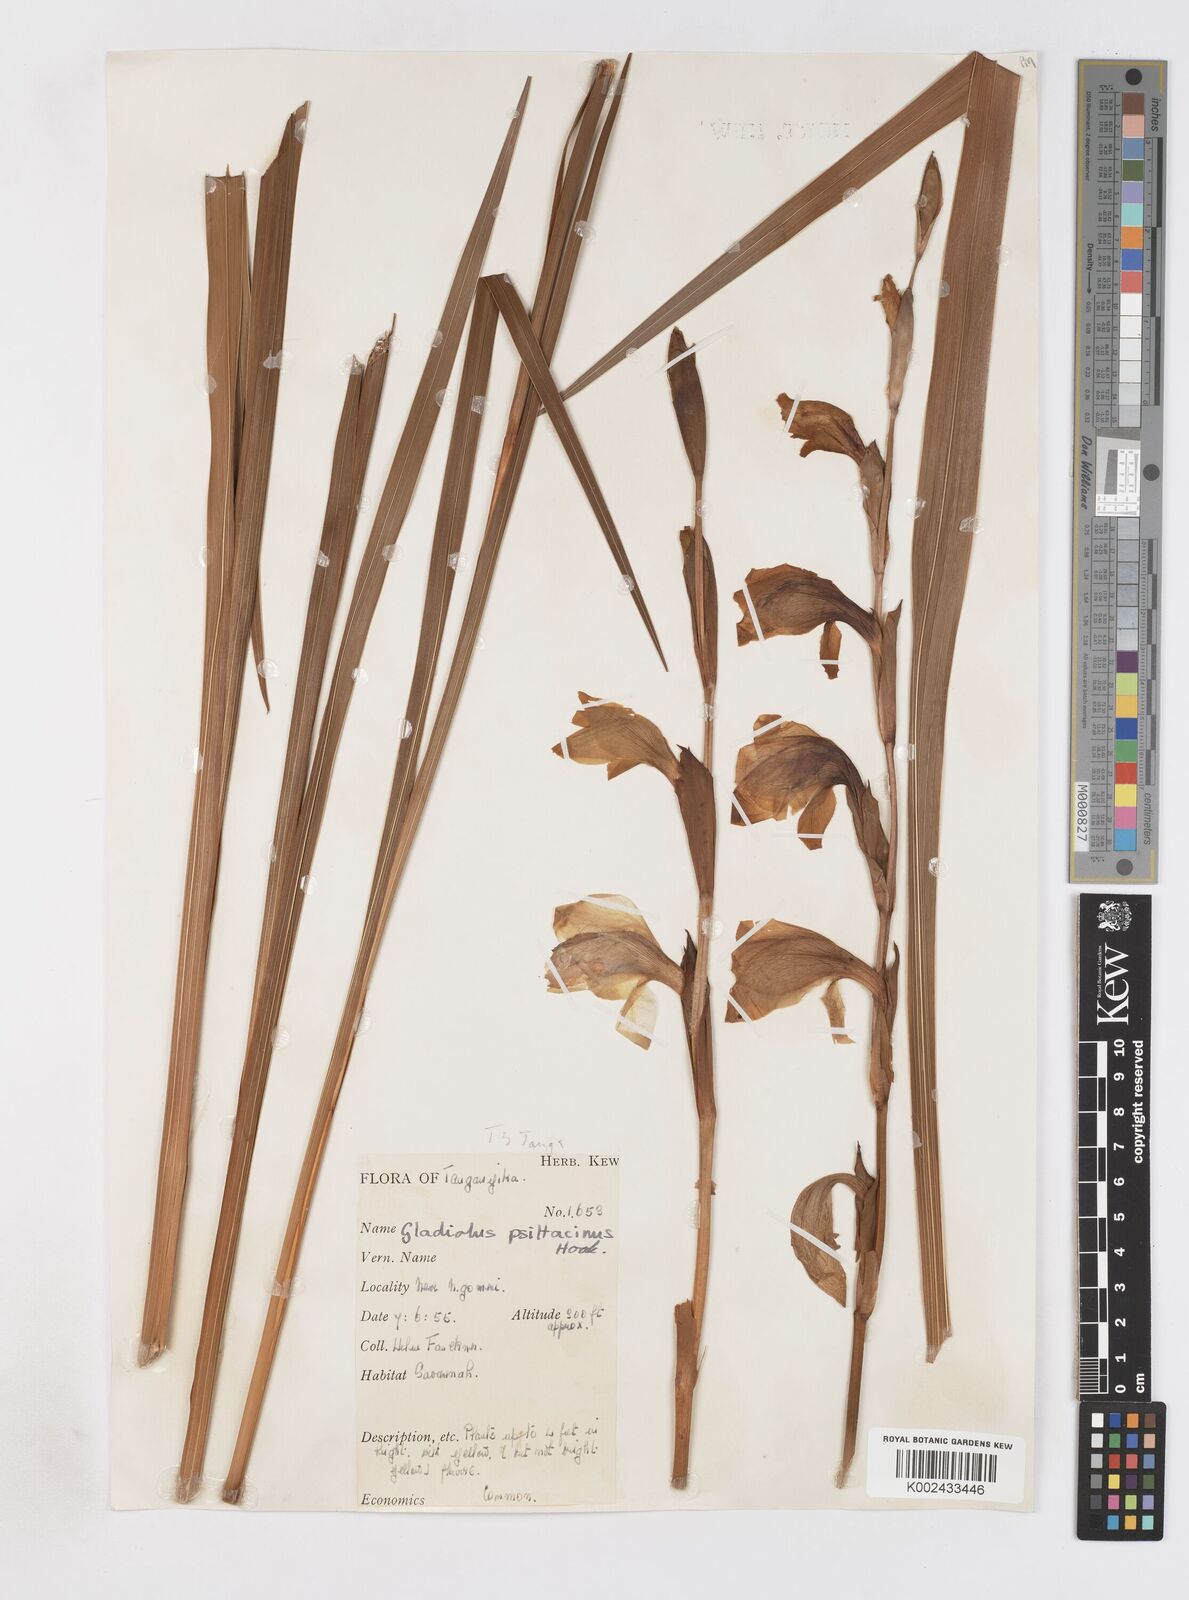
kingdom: Plantae
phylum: Tracheophyta
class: Liliopsida
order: Asparagales
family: Iridaceae
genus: Gladiolus
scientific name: Gladiolus dalenii
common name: Cornflag
